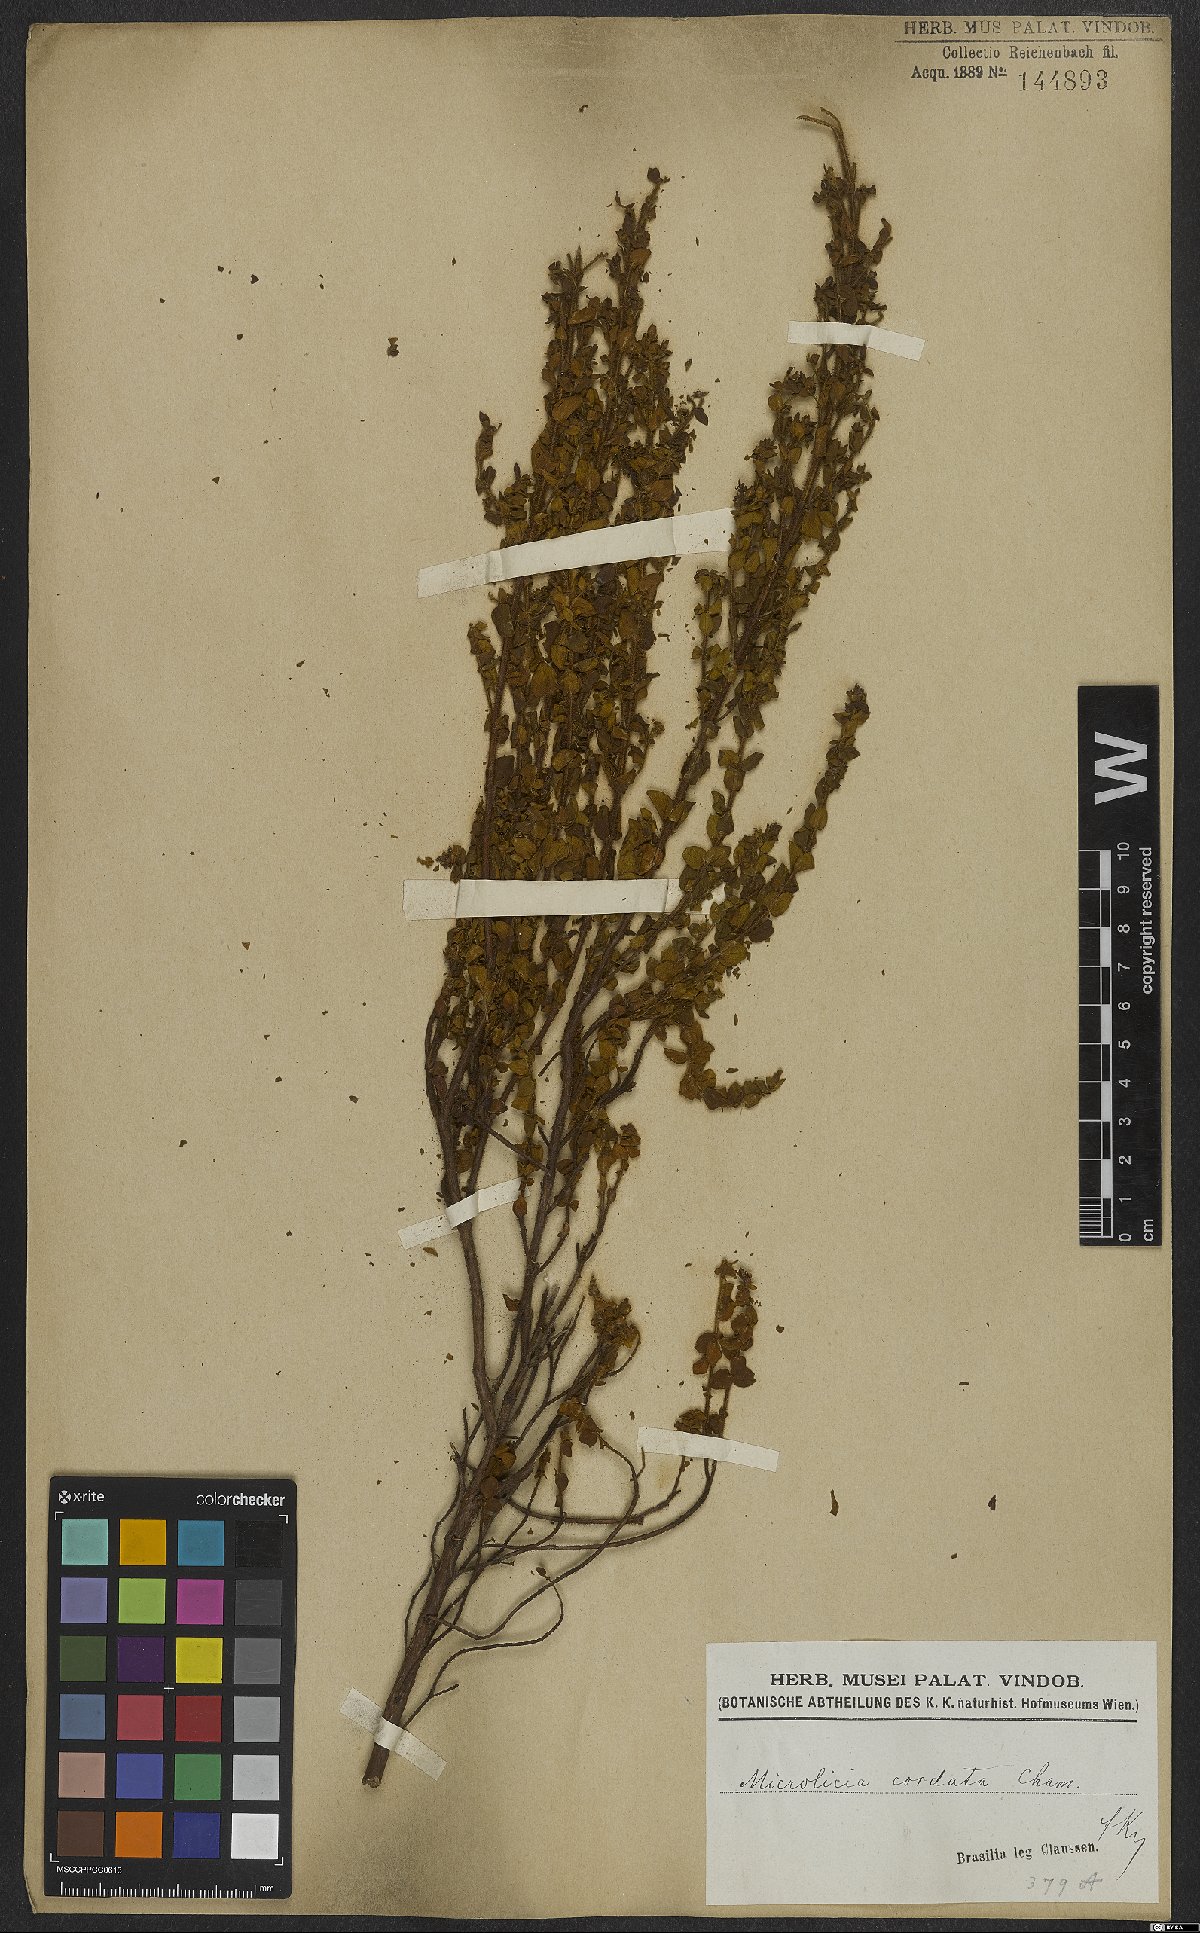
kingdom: Plantae
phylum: Tracheophyta
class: Magnoliopsida
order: Myrtales
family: Melastomataceae
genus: Microlicia
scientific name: Microlicia cordata
